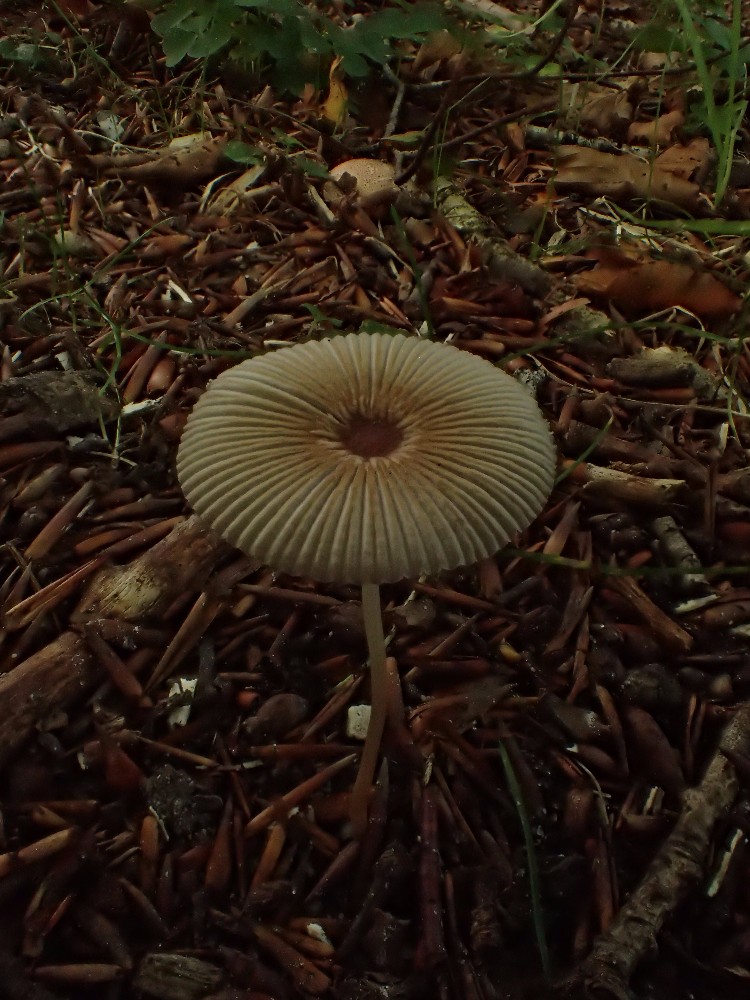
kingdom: Fungi
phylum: Basidiomycota
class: Agaricomycetes
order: Agaricales
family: Psathyrellaceae
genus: Parasola
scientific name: Parasola
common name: hjulhat
